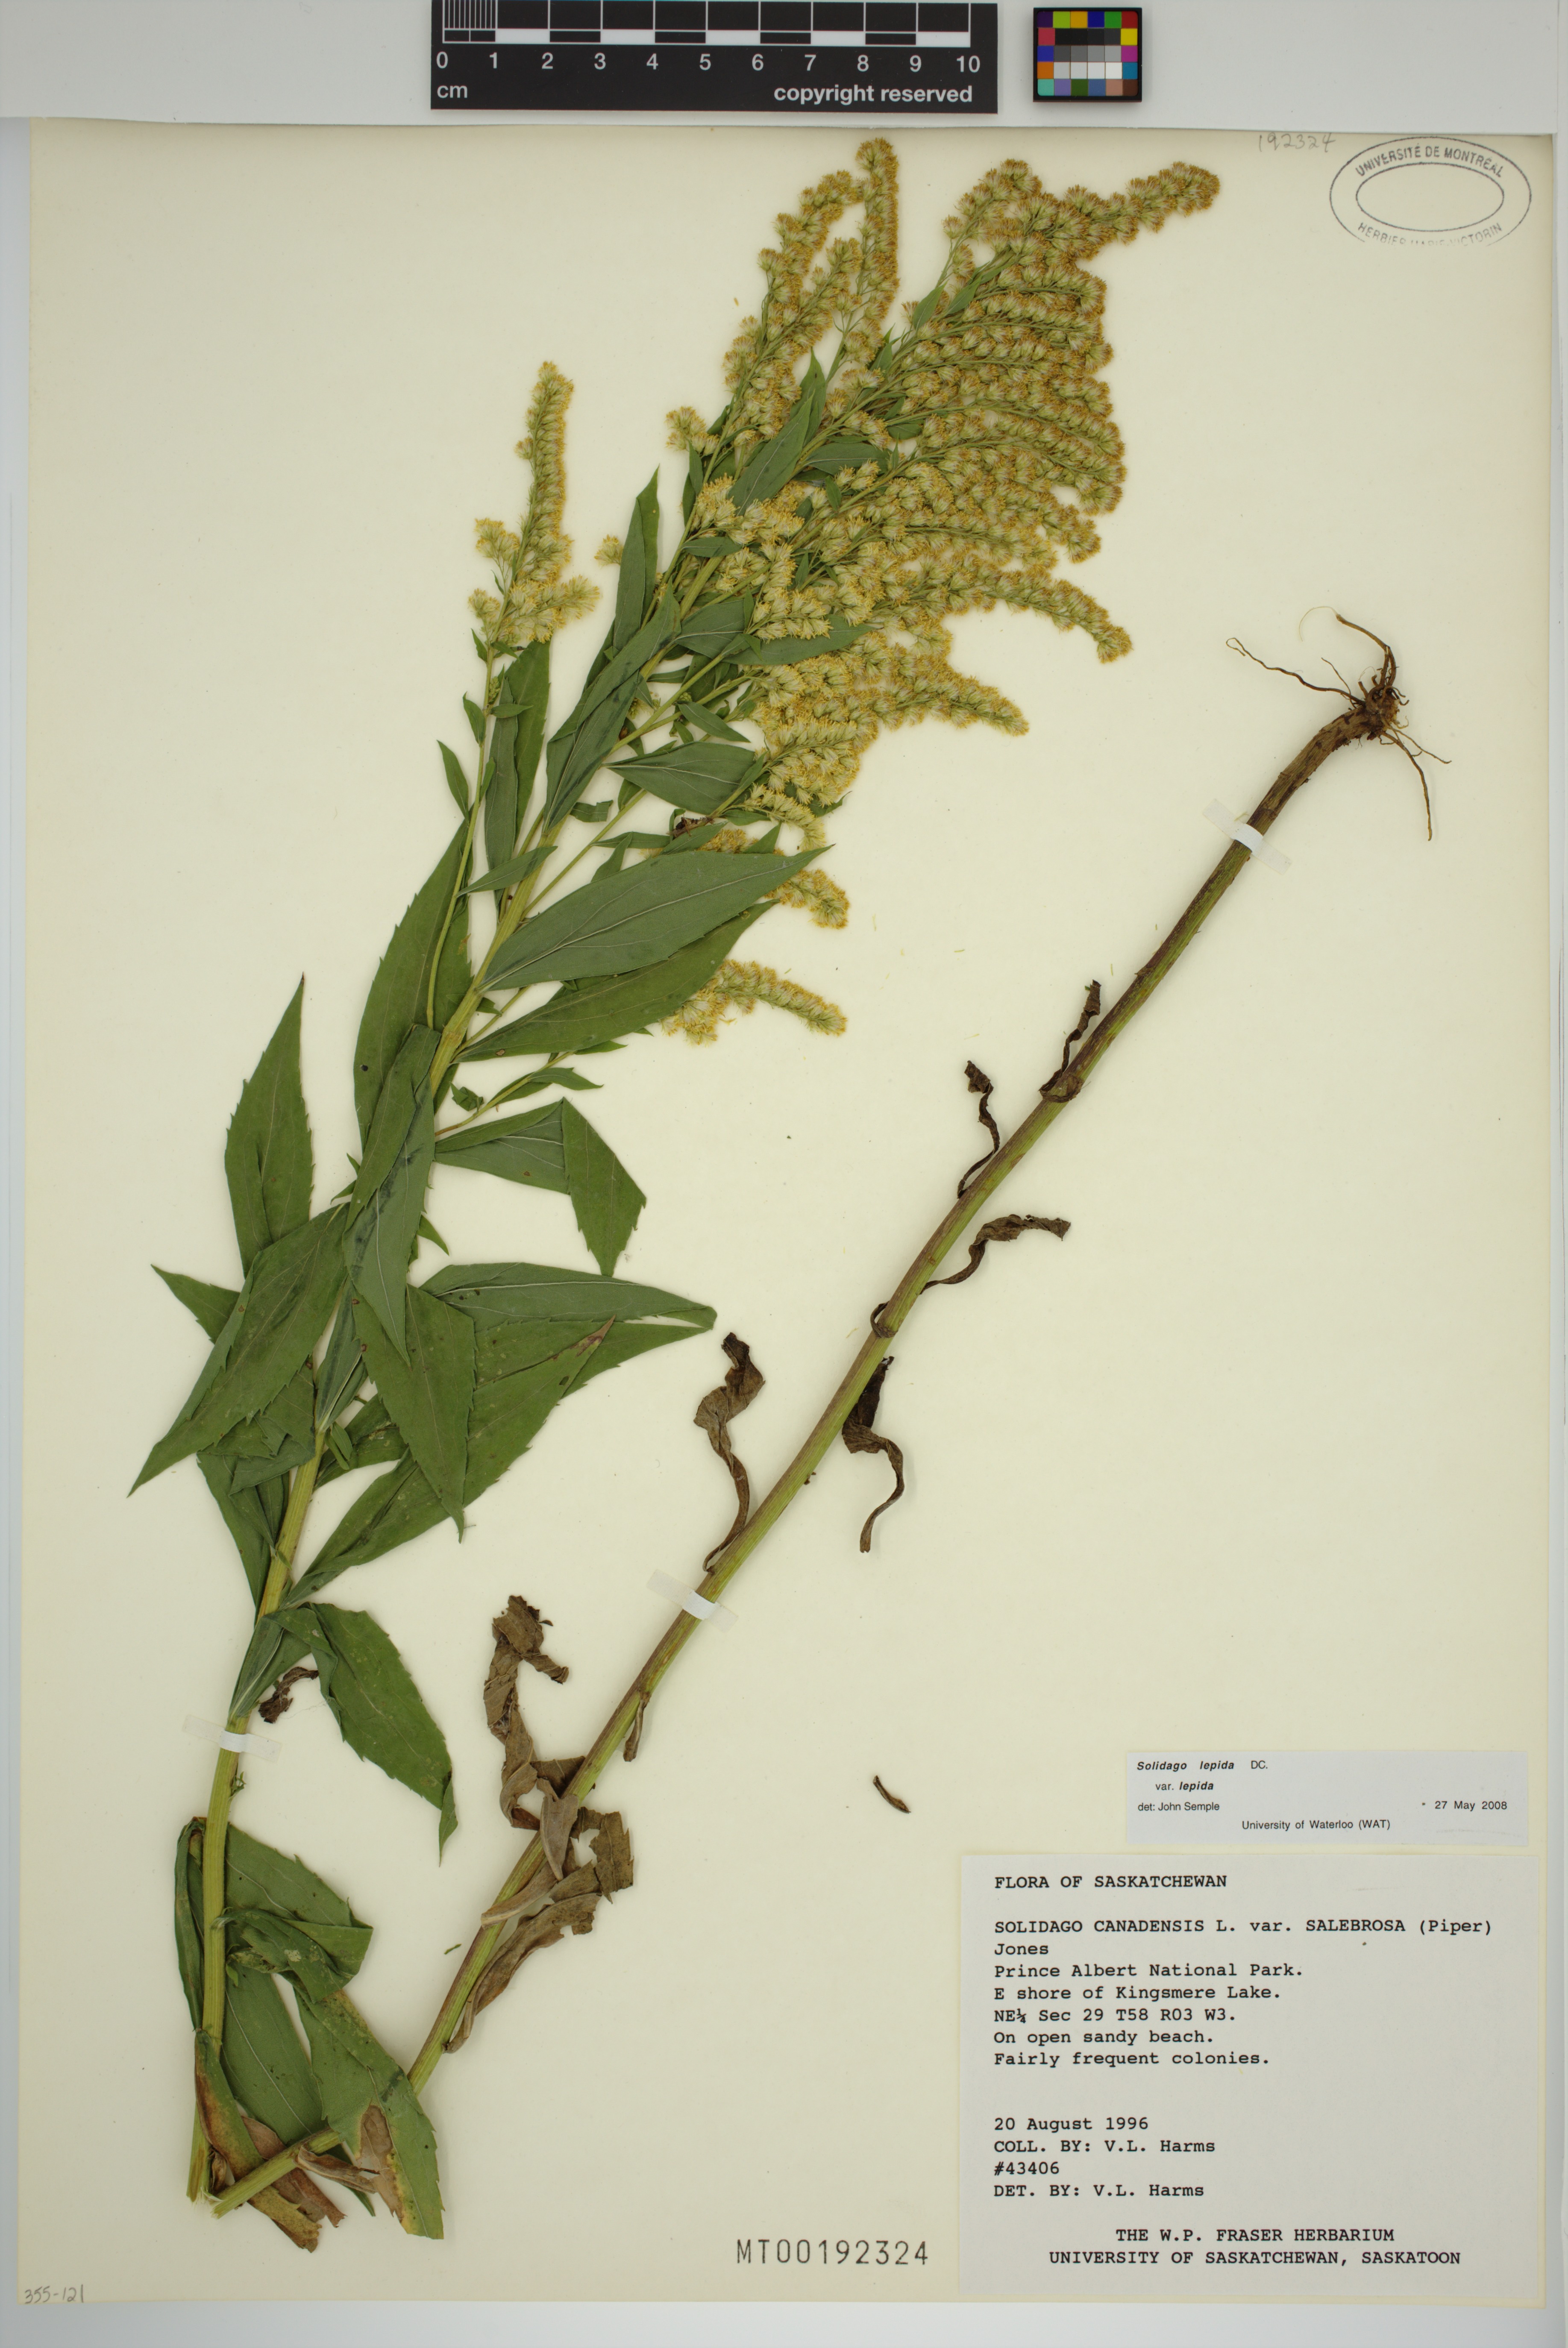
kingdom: Plantae
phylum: Tracheophyta
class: Magnoliopsida
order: Asterales
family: Asteraceae
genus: Solidago
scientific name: Solidago lepida
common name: Western canada goldenrod
